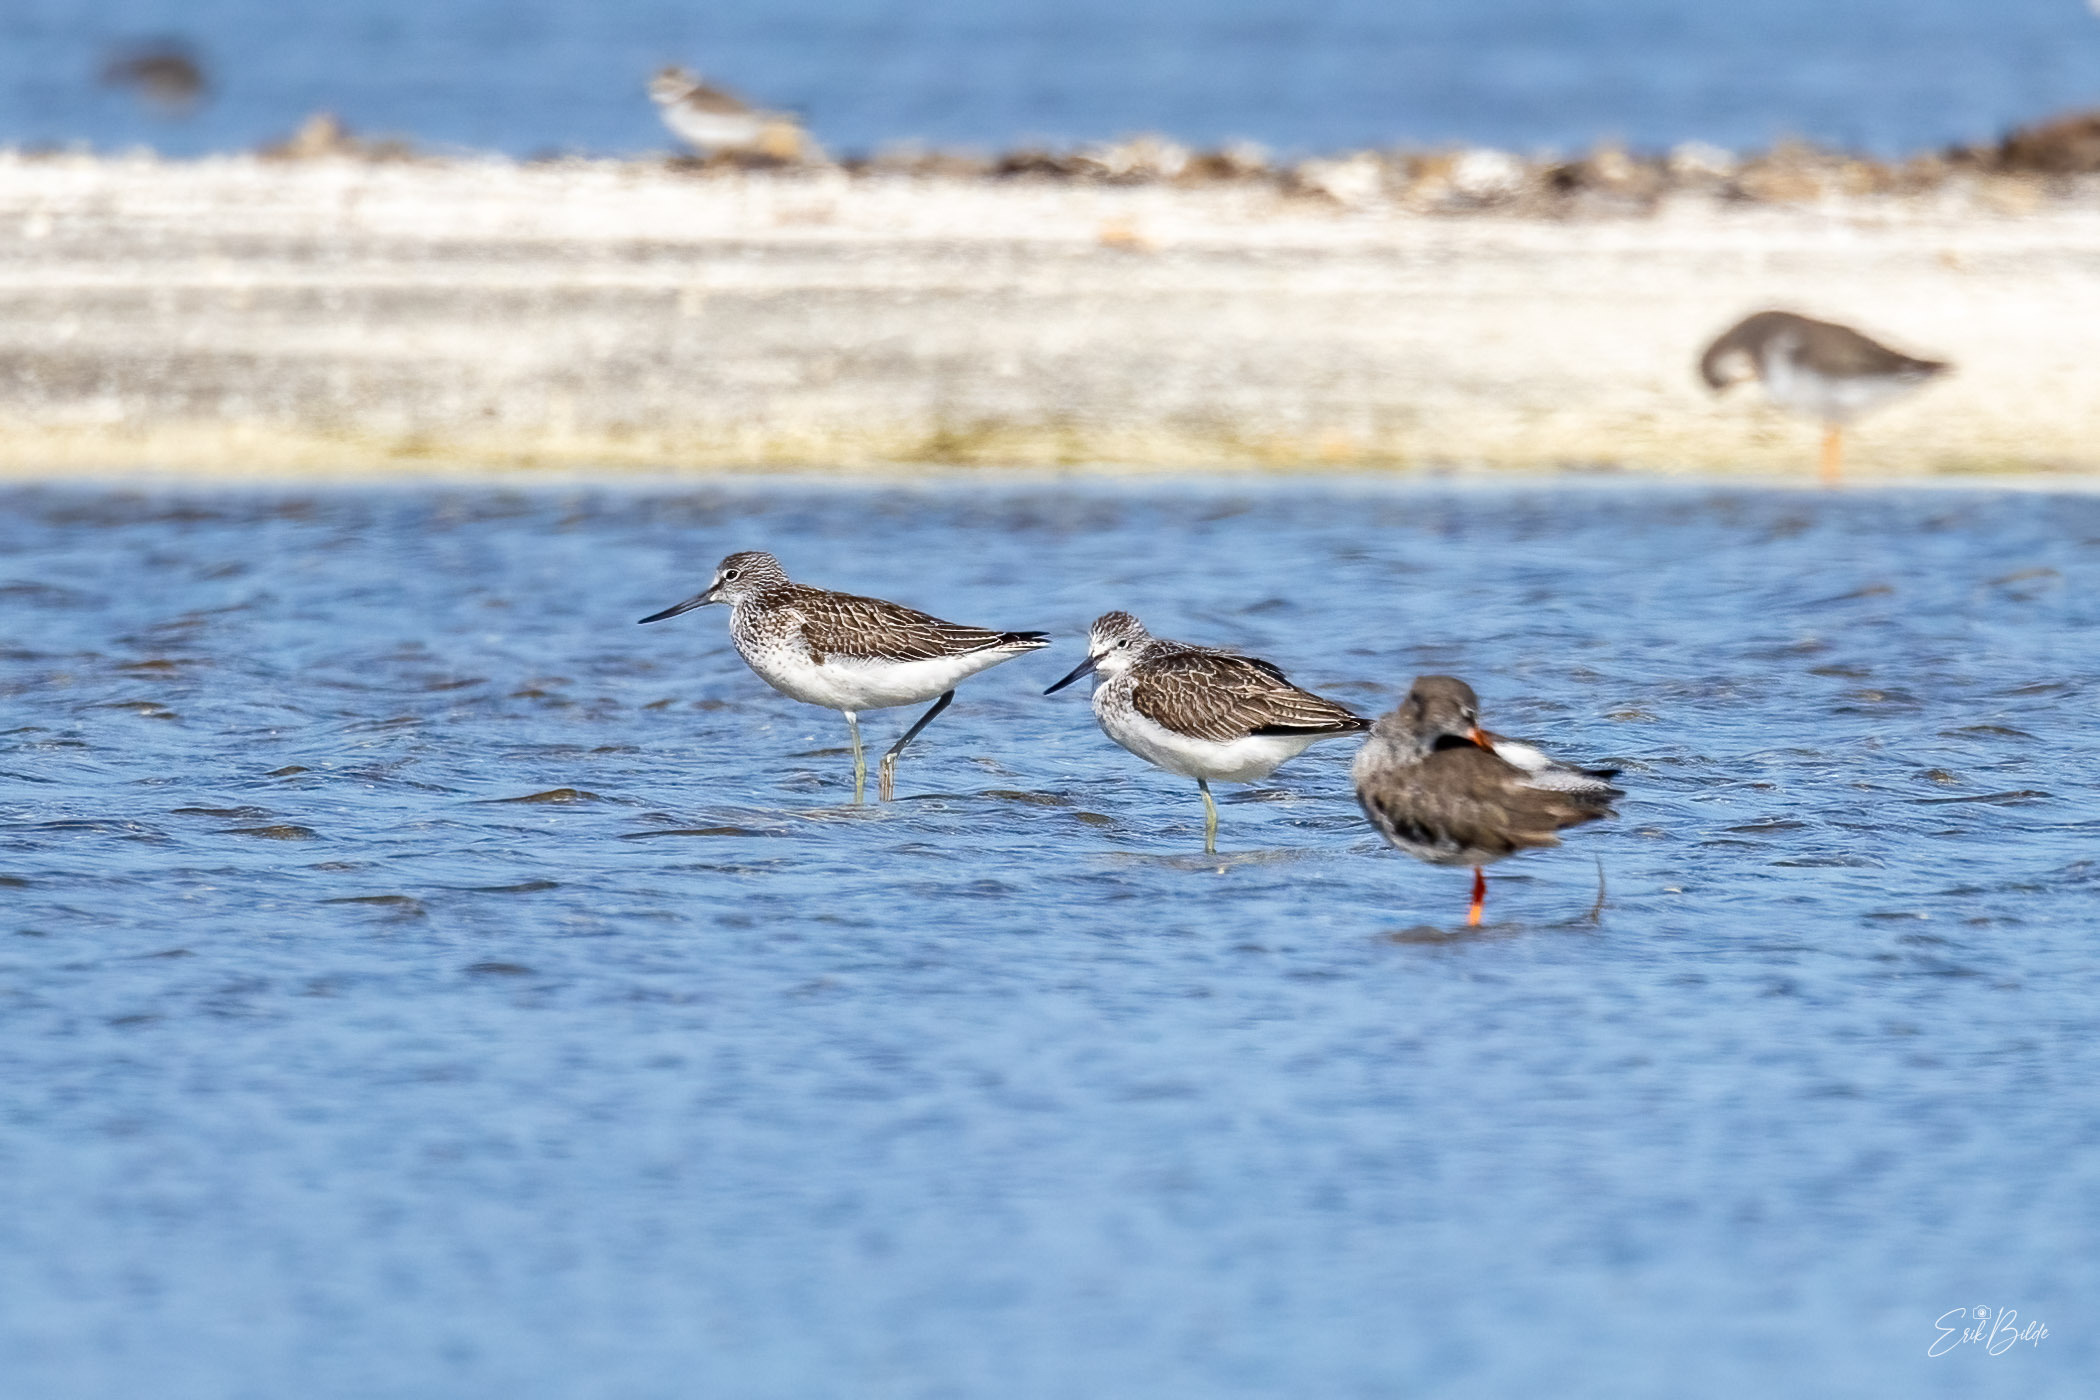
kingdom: Animalia
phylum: Chordata
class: Aves
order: Charadriiformes
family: Scolopacidae
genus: Tringa
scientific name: Tringa nebularia
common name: Hvidklire
